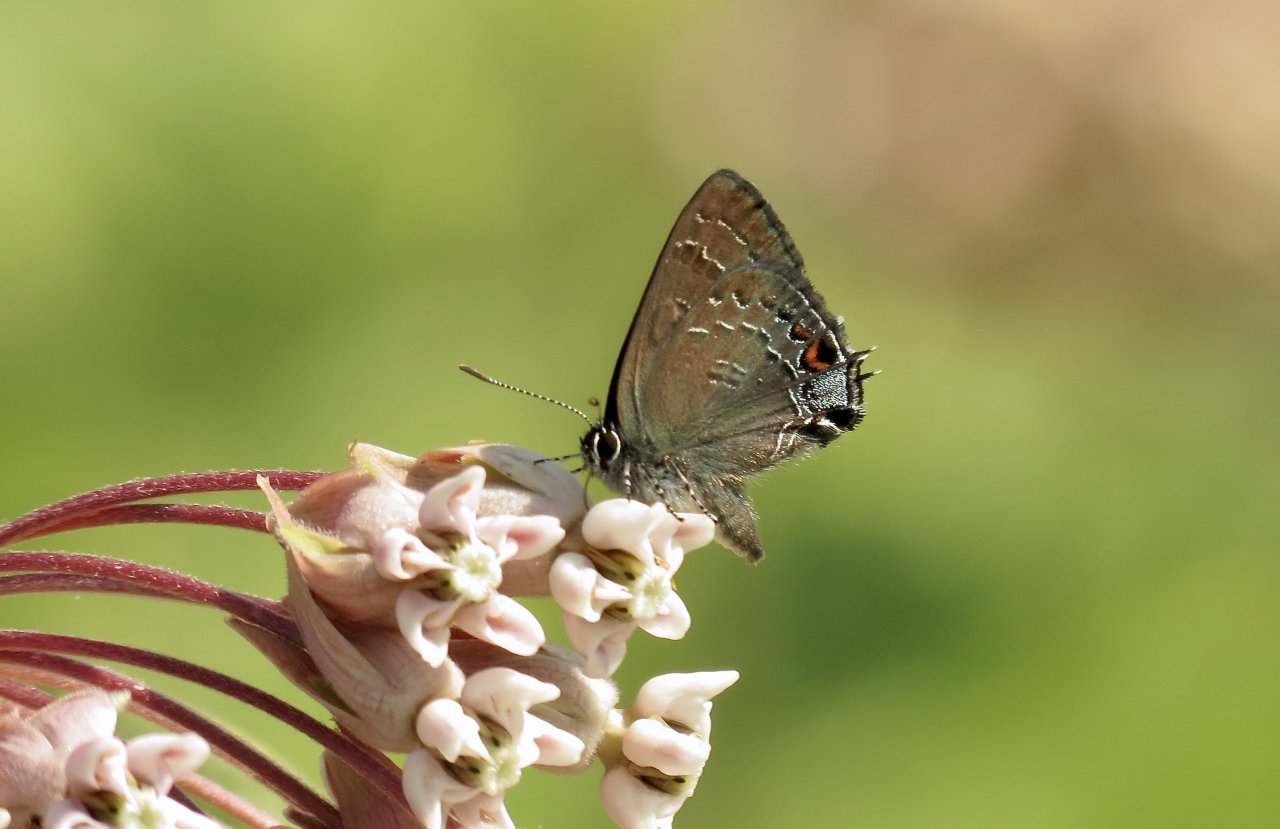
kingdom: Animalia
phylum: Arthropoda
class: Insecta
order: Lepidoptera
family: Lycaenidae
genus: Satyrium
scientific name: Satyrium calanus
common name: Banded Hairstreak
